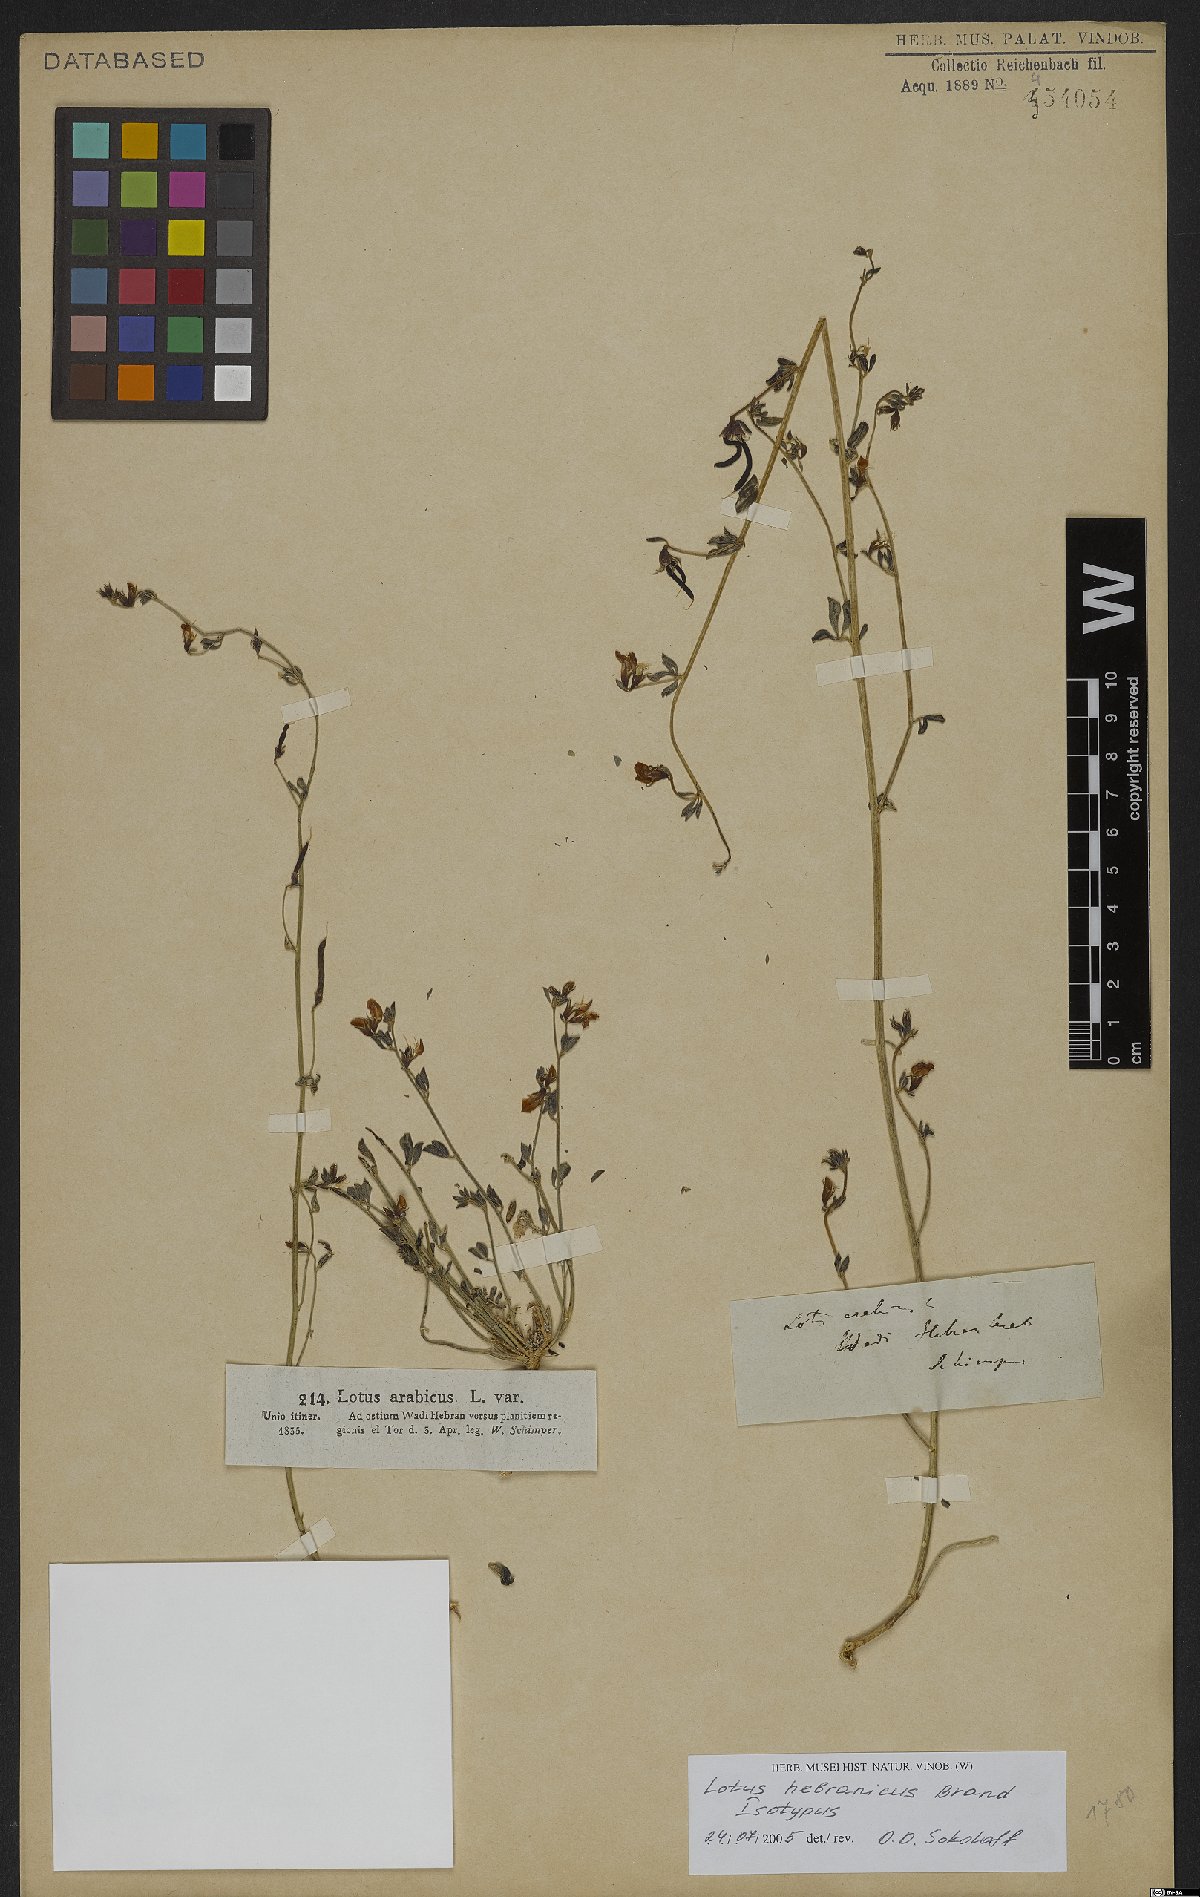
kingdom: Plantae
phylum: Tracheophyta
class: Magnoliopsida
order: Fabales
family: Fabaceae
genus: Lotus
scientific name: Lotus hebranicus
